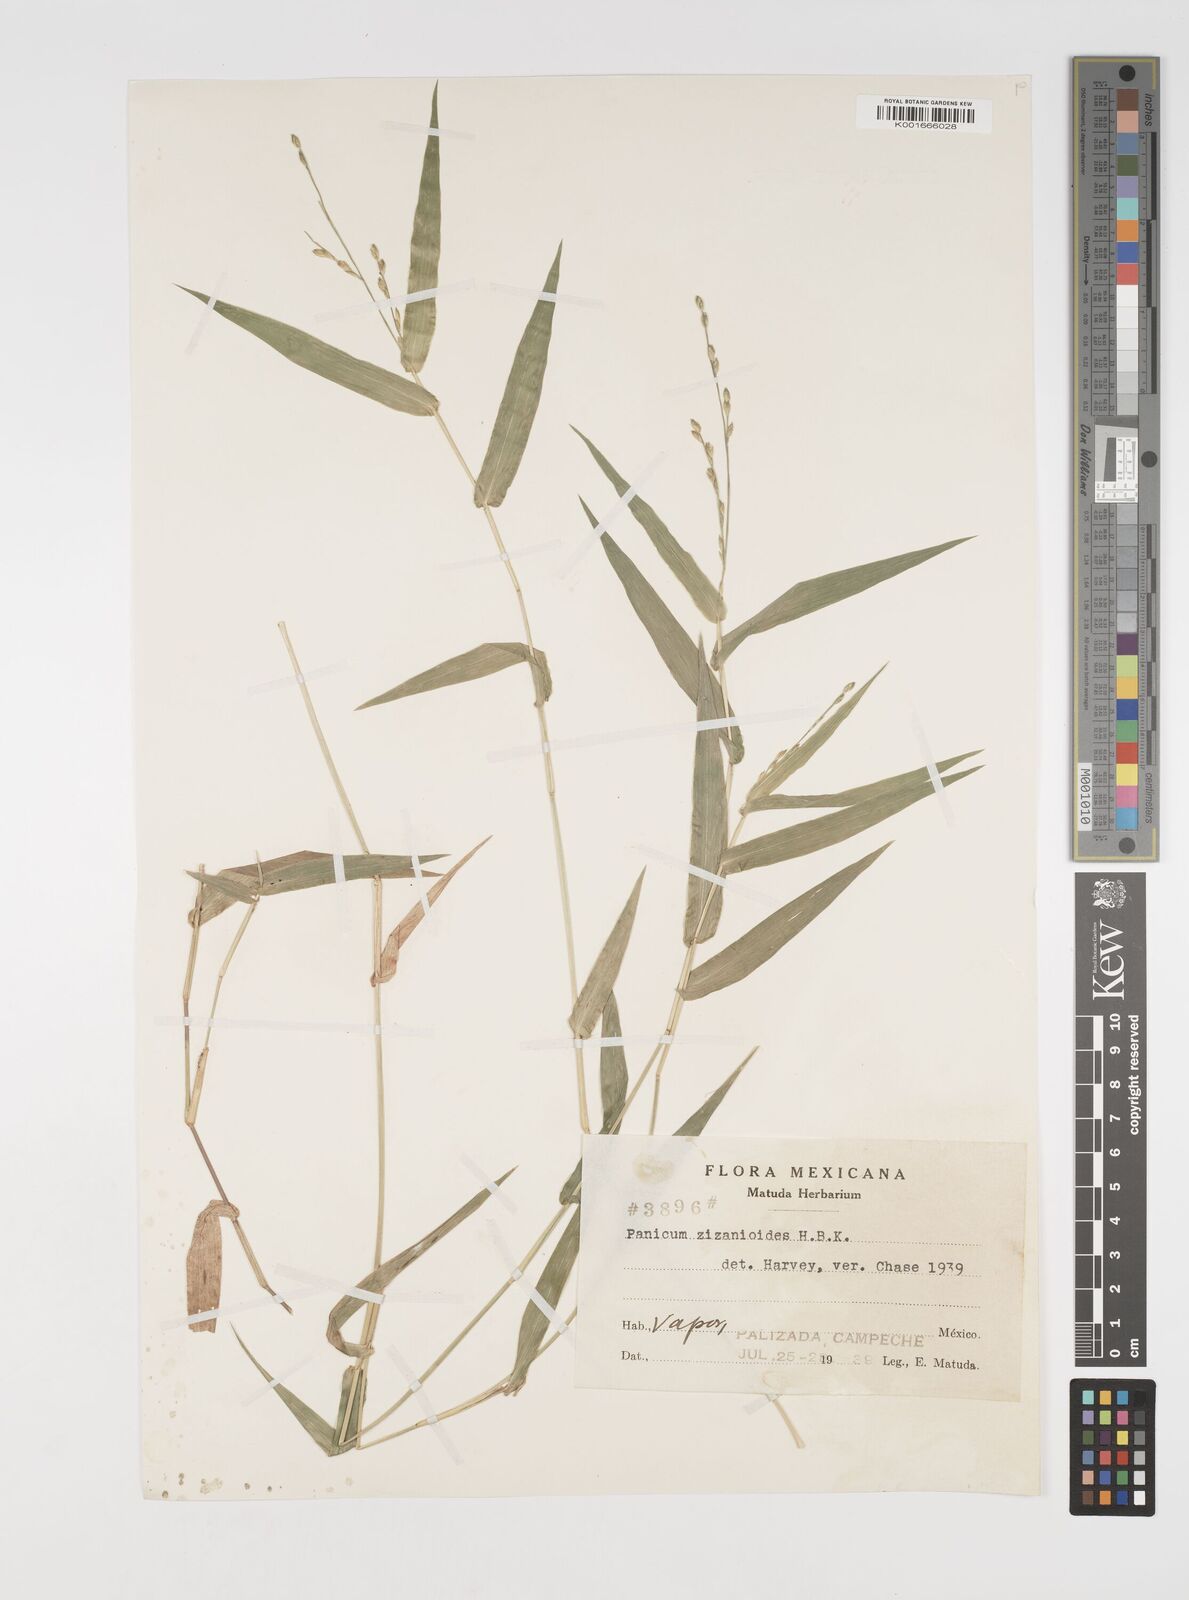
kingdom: Plantae
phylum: Tracheophyta
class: Liliopsida
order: Poales
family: Poaceae
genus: Acroceras
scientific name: Acroceras zizanioides
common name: Oat grass
